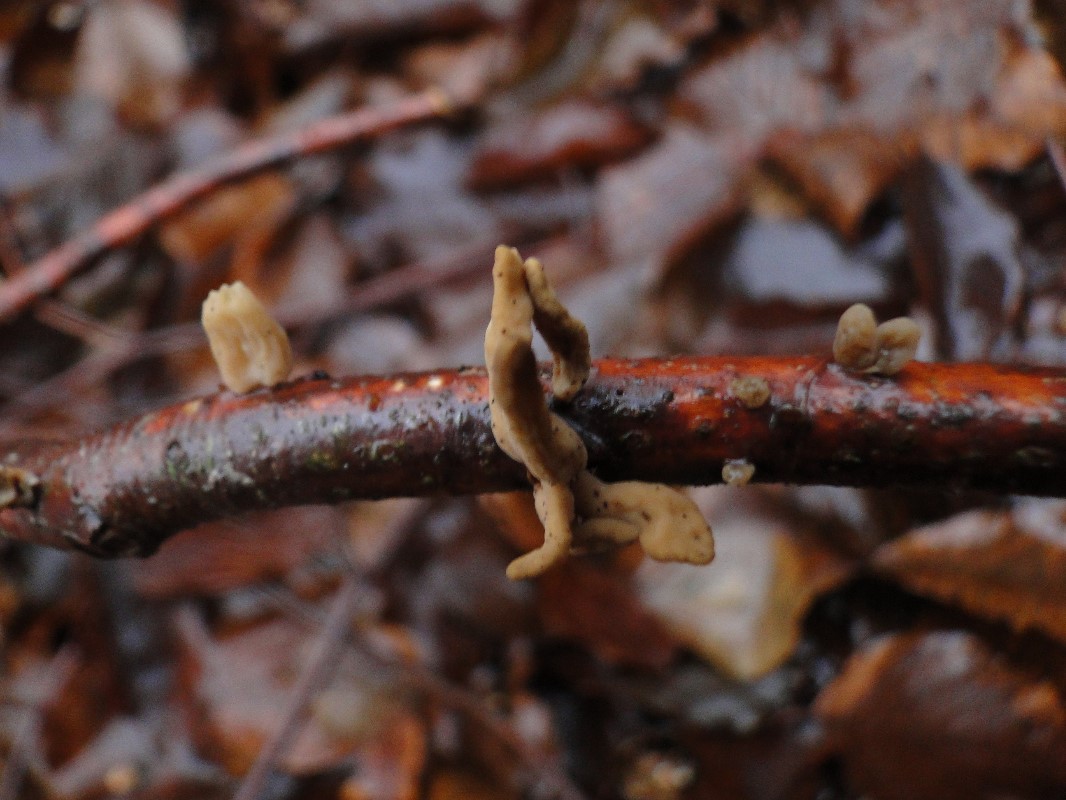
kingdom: Fungi
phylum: Basidiomycota
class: Agaricomycetes
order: Agaricales
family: Typhulaceae
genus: Typhula
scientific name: Typhula contorta
